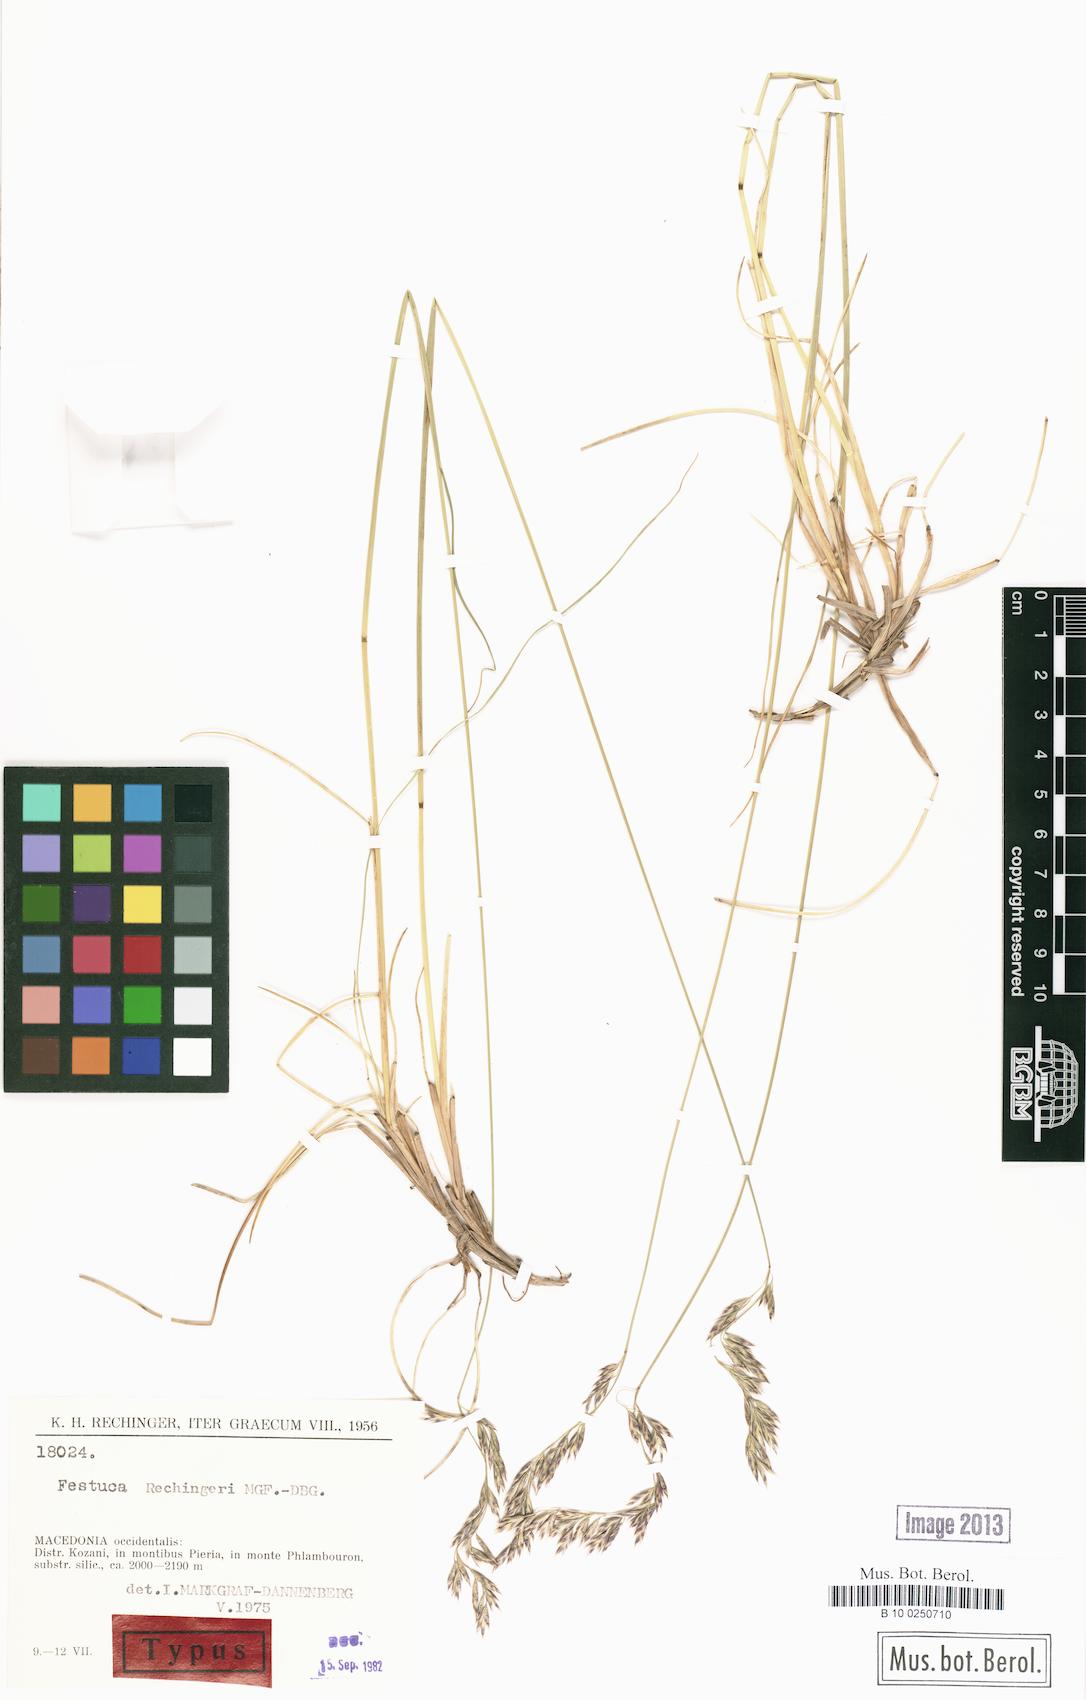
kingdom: Plantae
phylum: Tracheophyta
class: Liliopsida
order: Poales
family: Poaceae
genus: Festuca
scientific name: Festuca kozanensis
